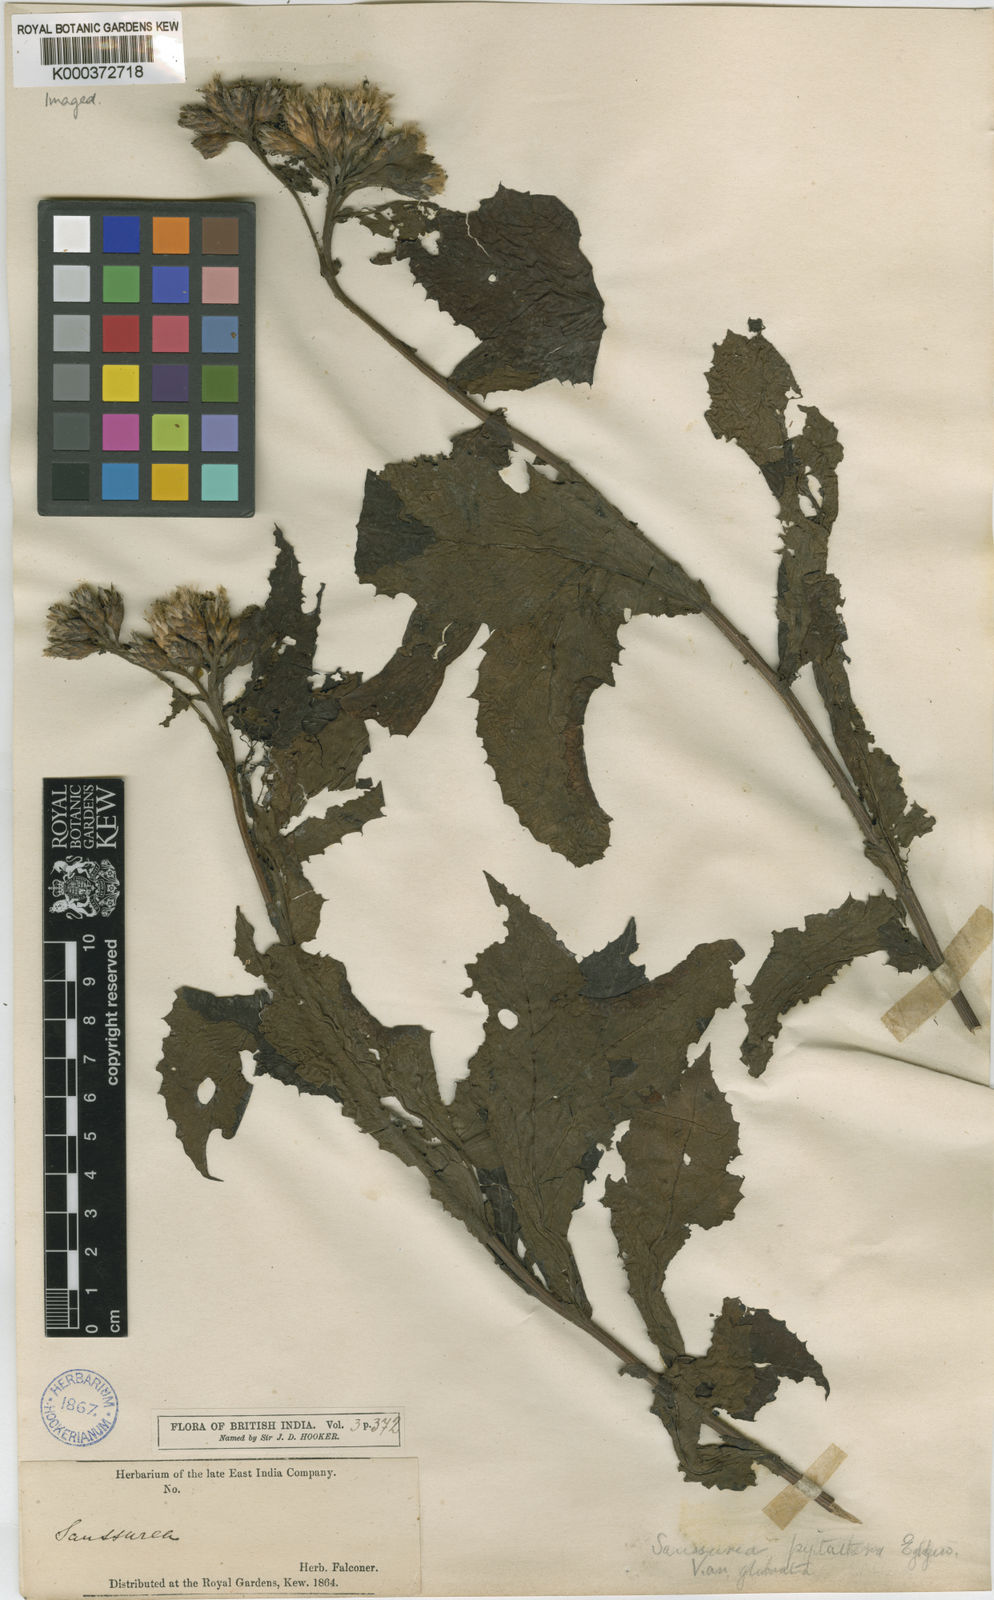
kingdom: Plantae
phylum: Tracheophyta
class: Magnoliopsida
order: Asterales
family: Asteraceae
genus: Saussurea
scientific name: Saussurea piptathera
